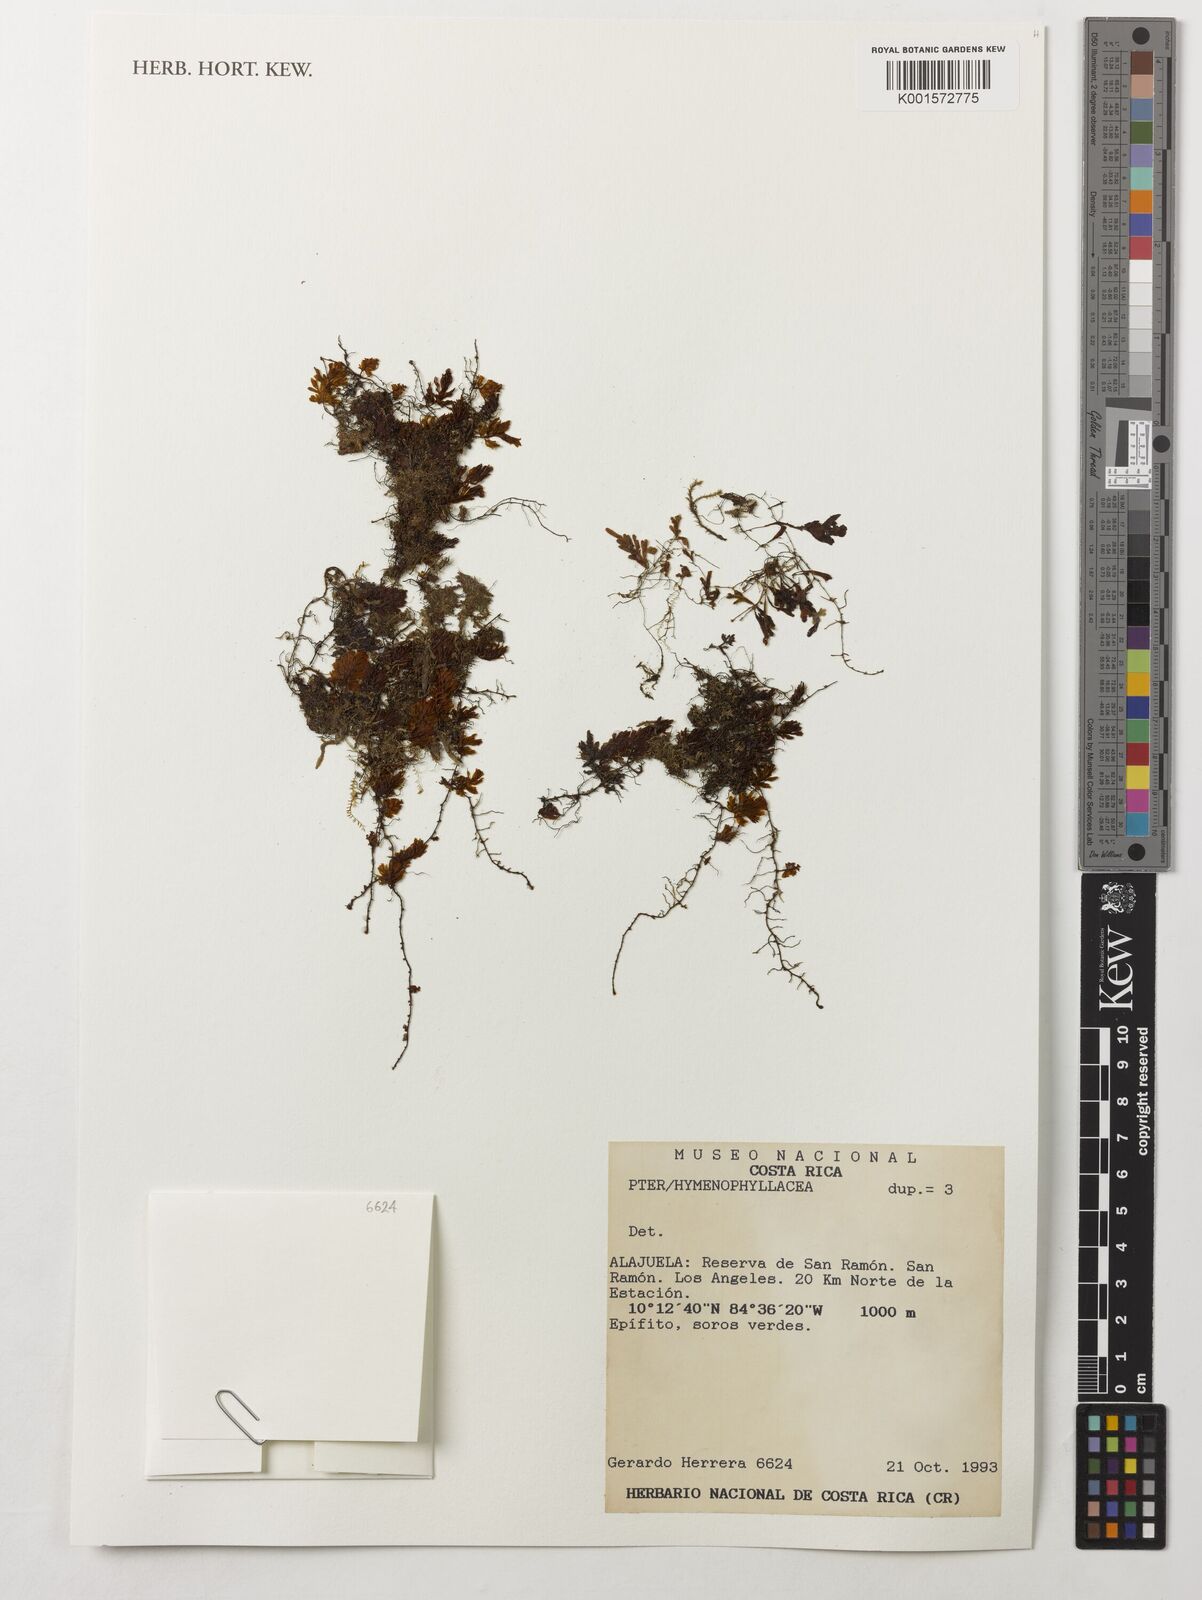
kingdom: Plantae
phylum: Tracheophyta
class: Polypodiopsida
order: Hymenophyllales
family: Hymenophyllaceae
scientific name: Hymenophyllaceae
